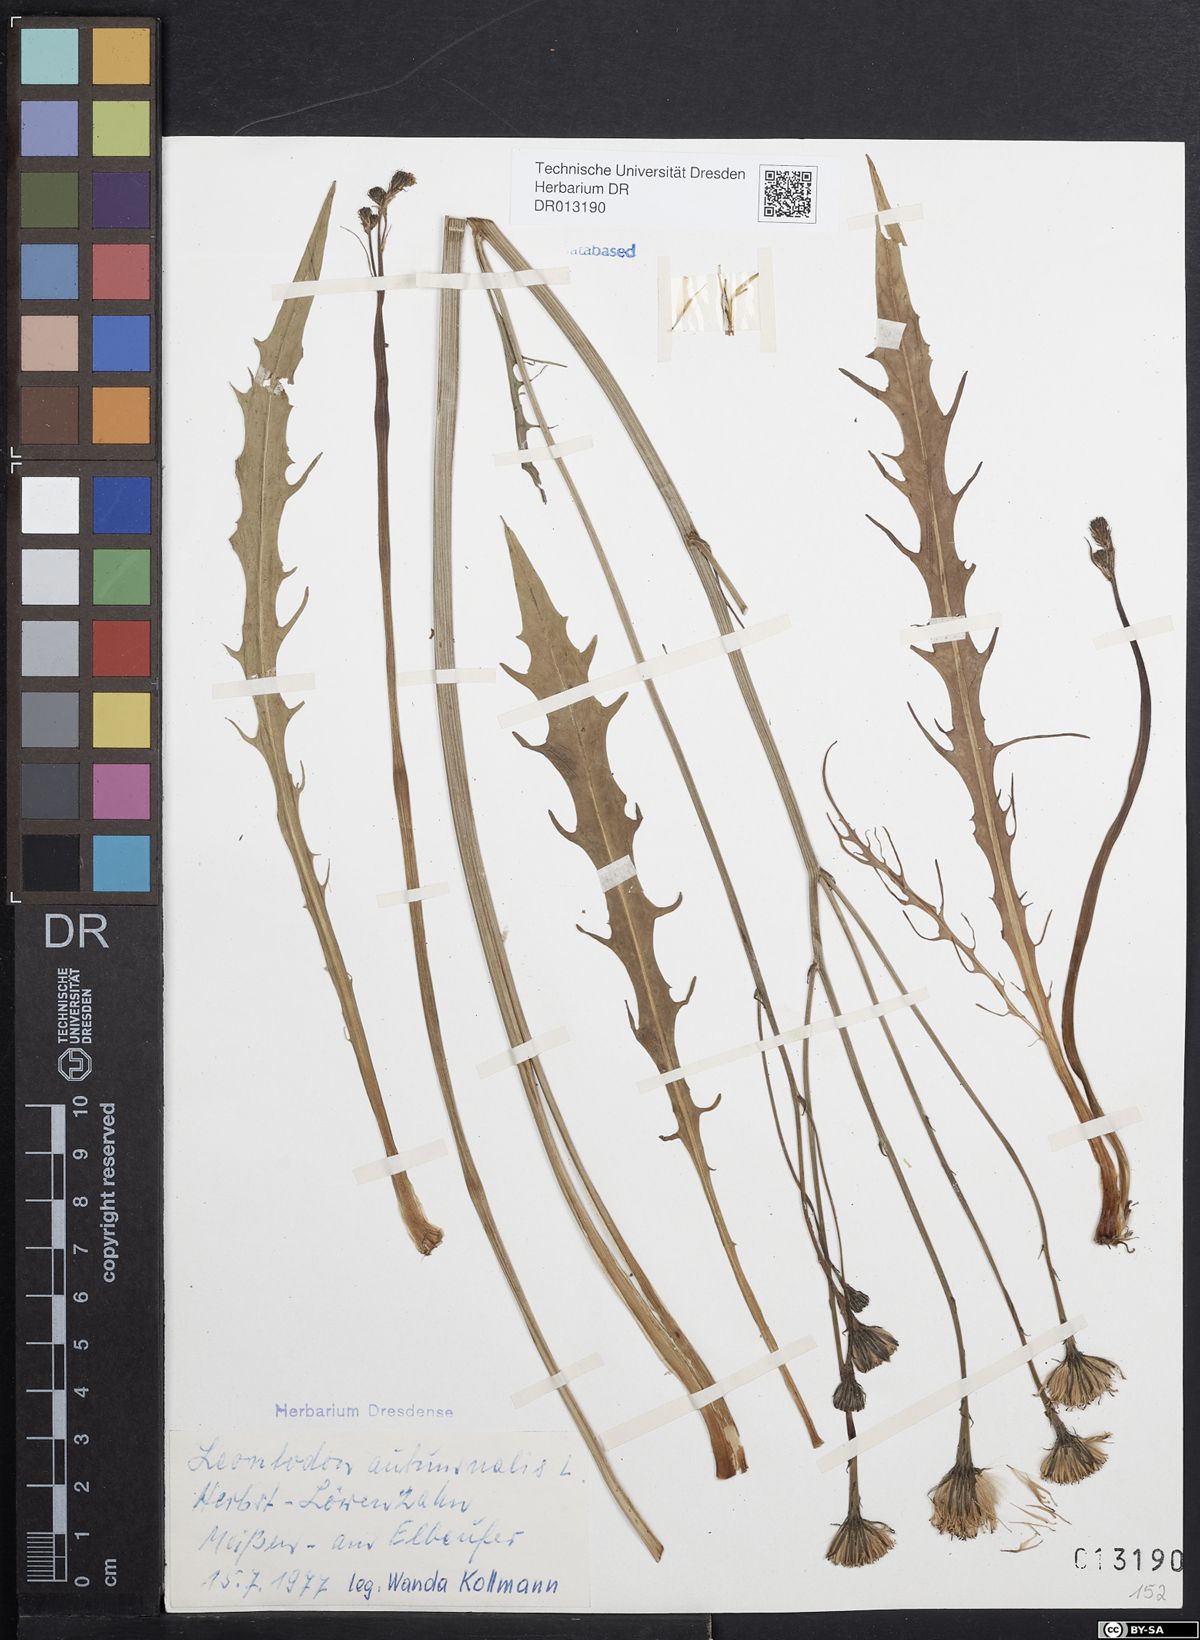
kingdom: Plantae
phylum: Tracheophyta
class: Magnoliopsida
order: Asterales
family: Asteraceae
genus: Scorzoneroides
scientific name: Scorzoneroides autumnalis
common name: Autumn hawkbit
